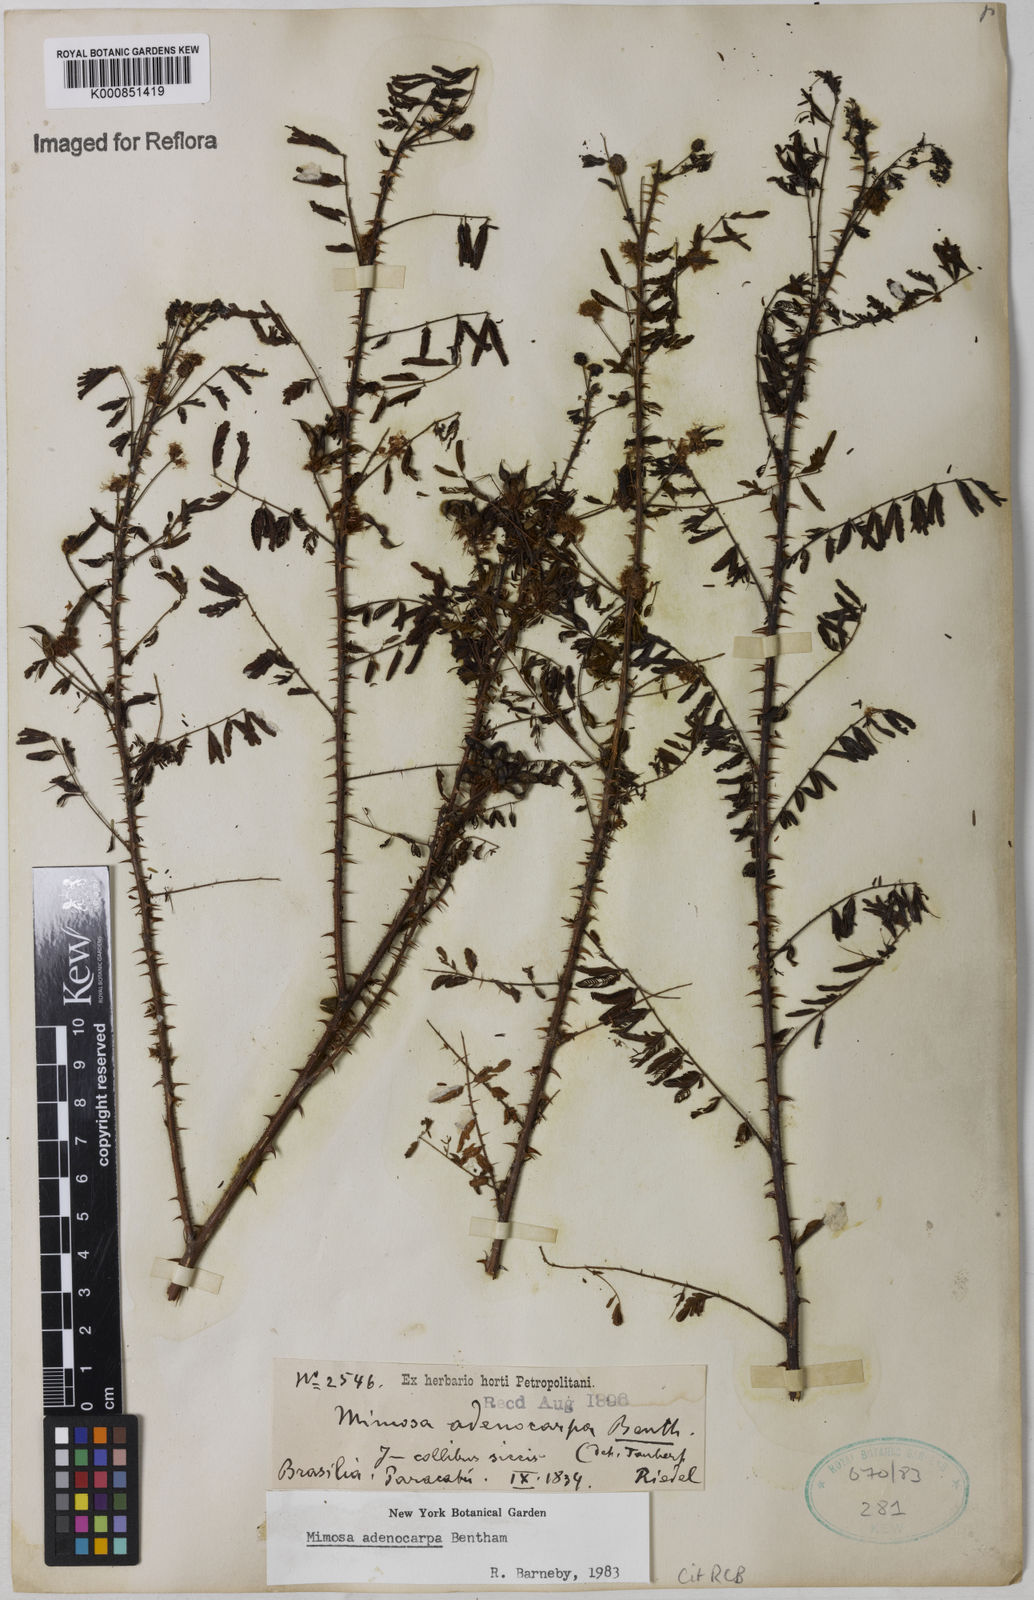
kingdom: Plantae
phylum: Tracheophyta
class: Magnoliopsida
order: Fabales
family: Fabaceae
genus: Mimosa
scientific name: Mimosa adenocarpa
